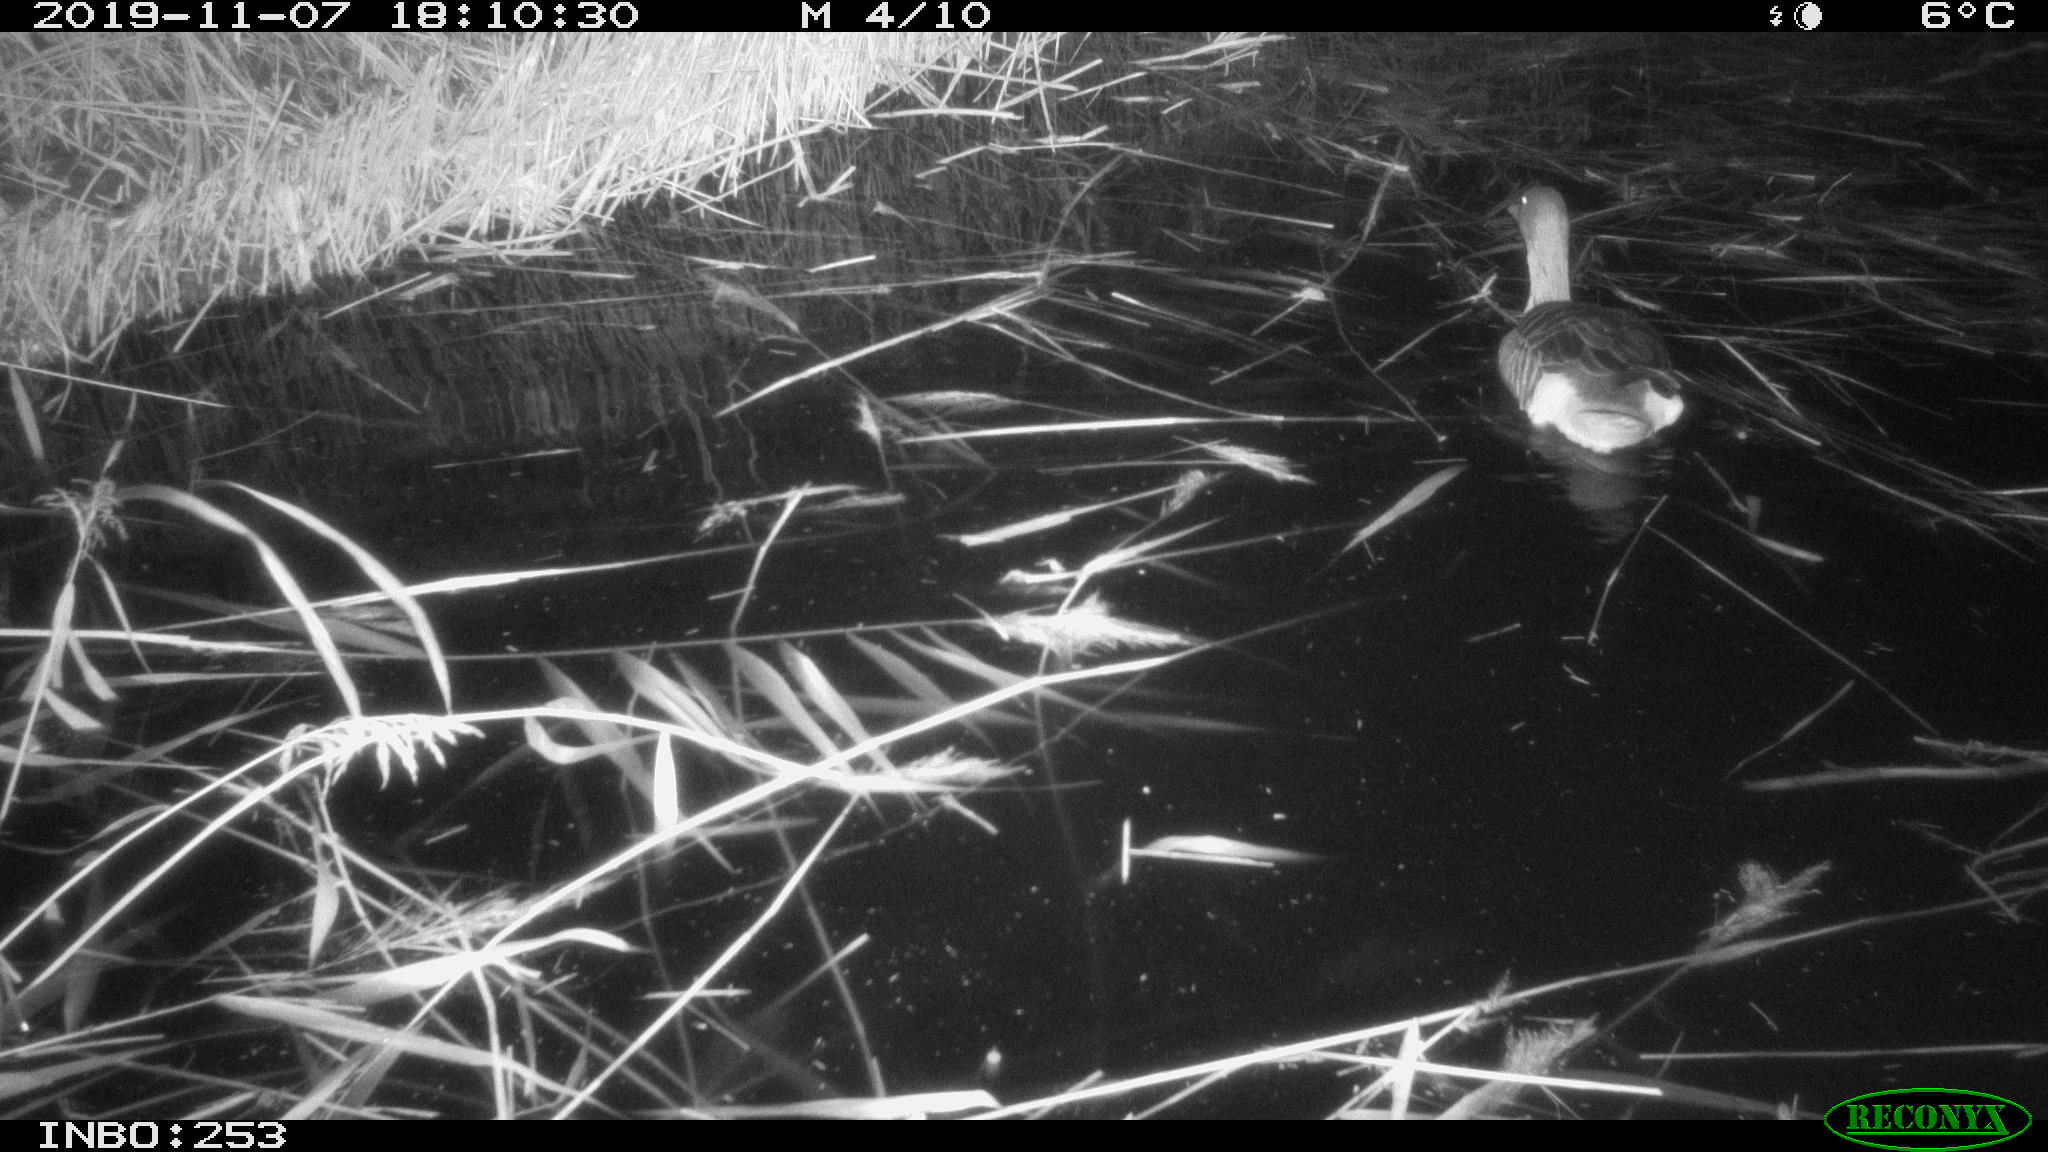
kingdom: Animalia
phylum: Chordata
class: Aves
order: Anseriformes
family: Anatidae
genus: Anser
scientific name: Anser anser
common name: Greylag goose
